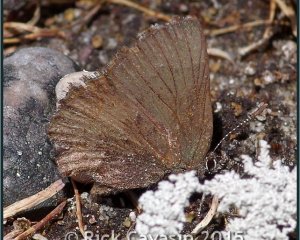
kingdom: Animalia
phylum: Arthropoda
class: Insecta
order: Lepidoptera
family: Lycaenidae
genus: Incisalia
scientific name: Incisalia irioides
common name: Brown Elfin
